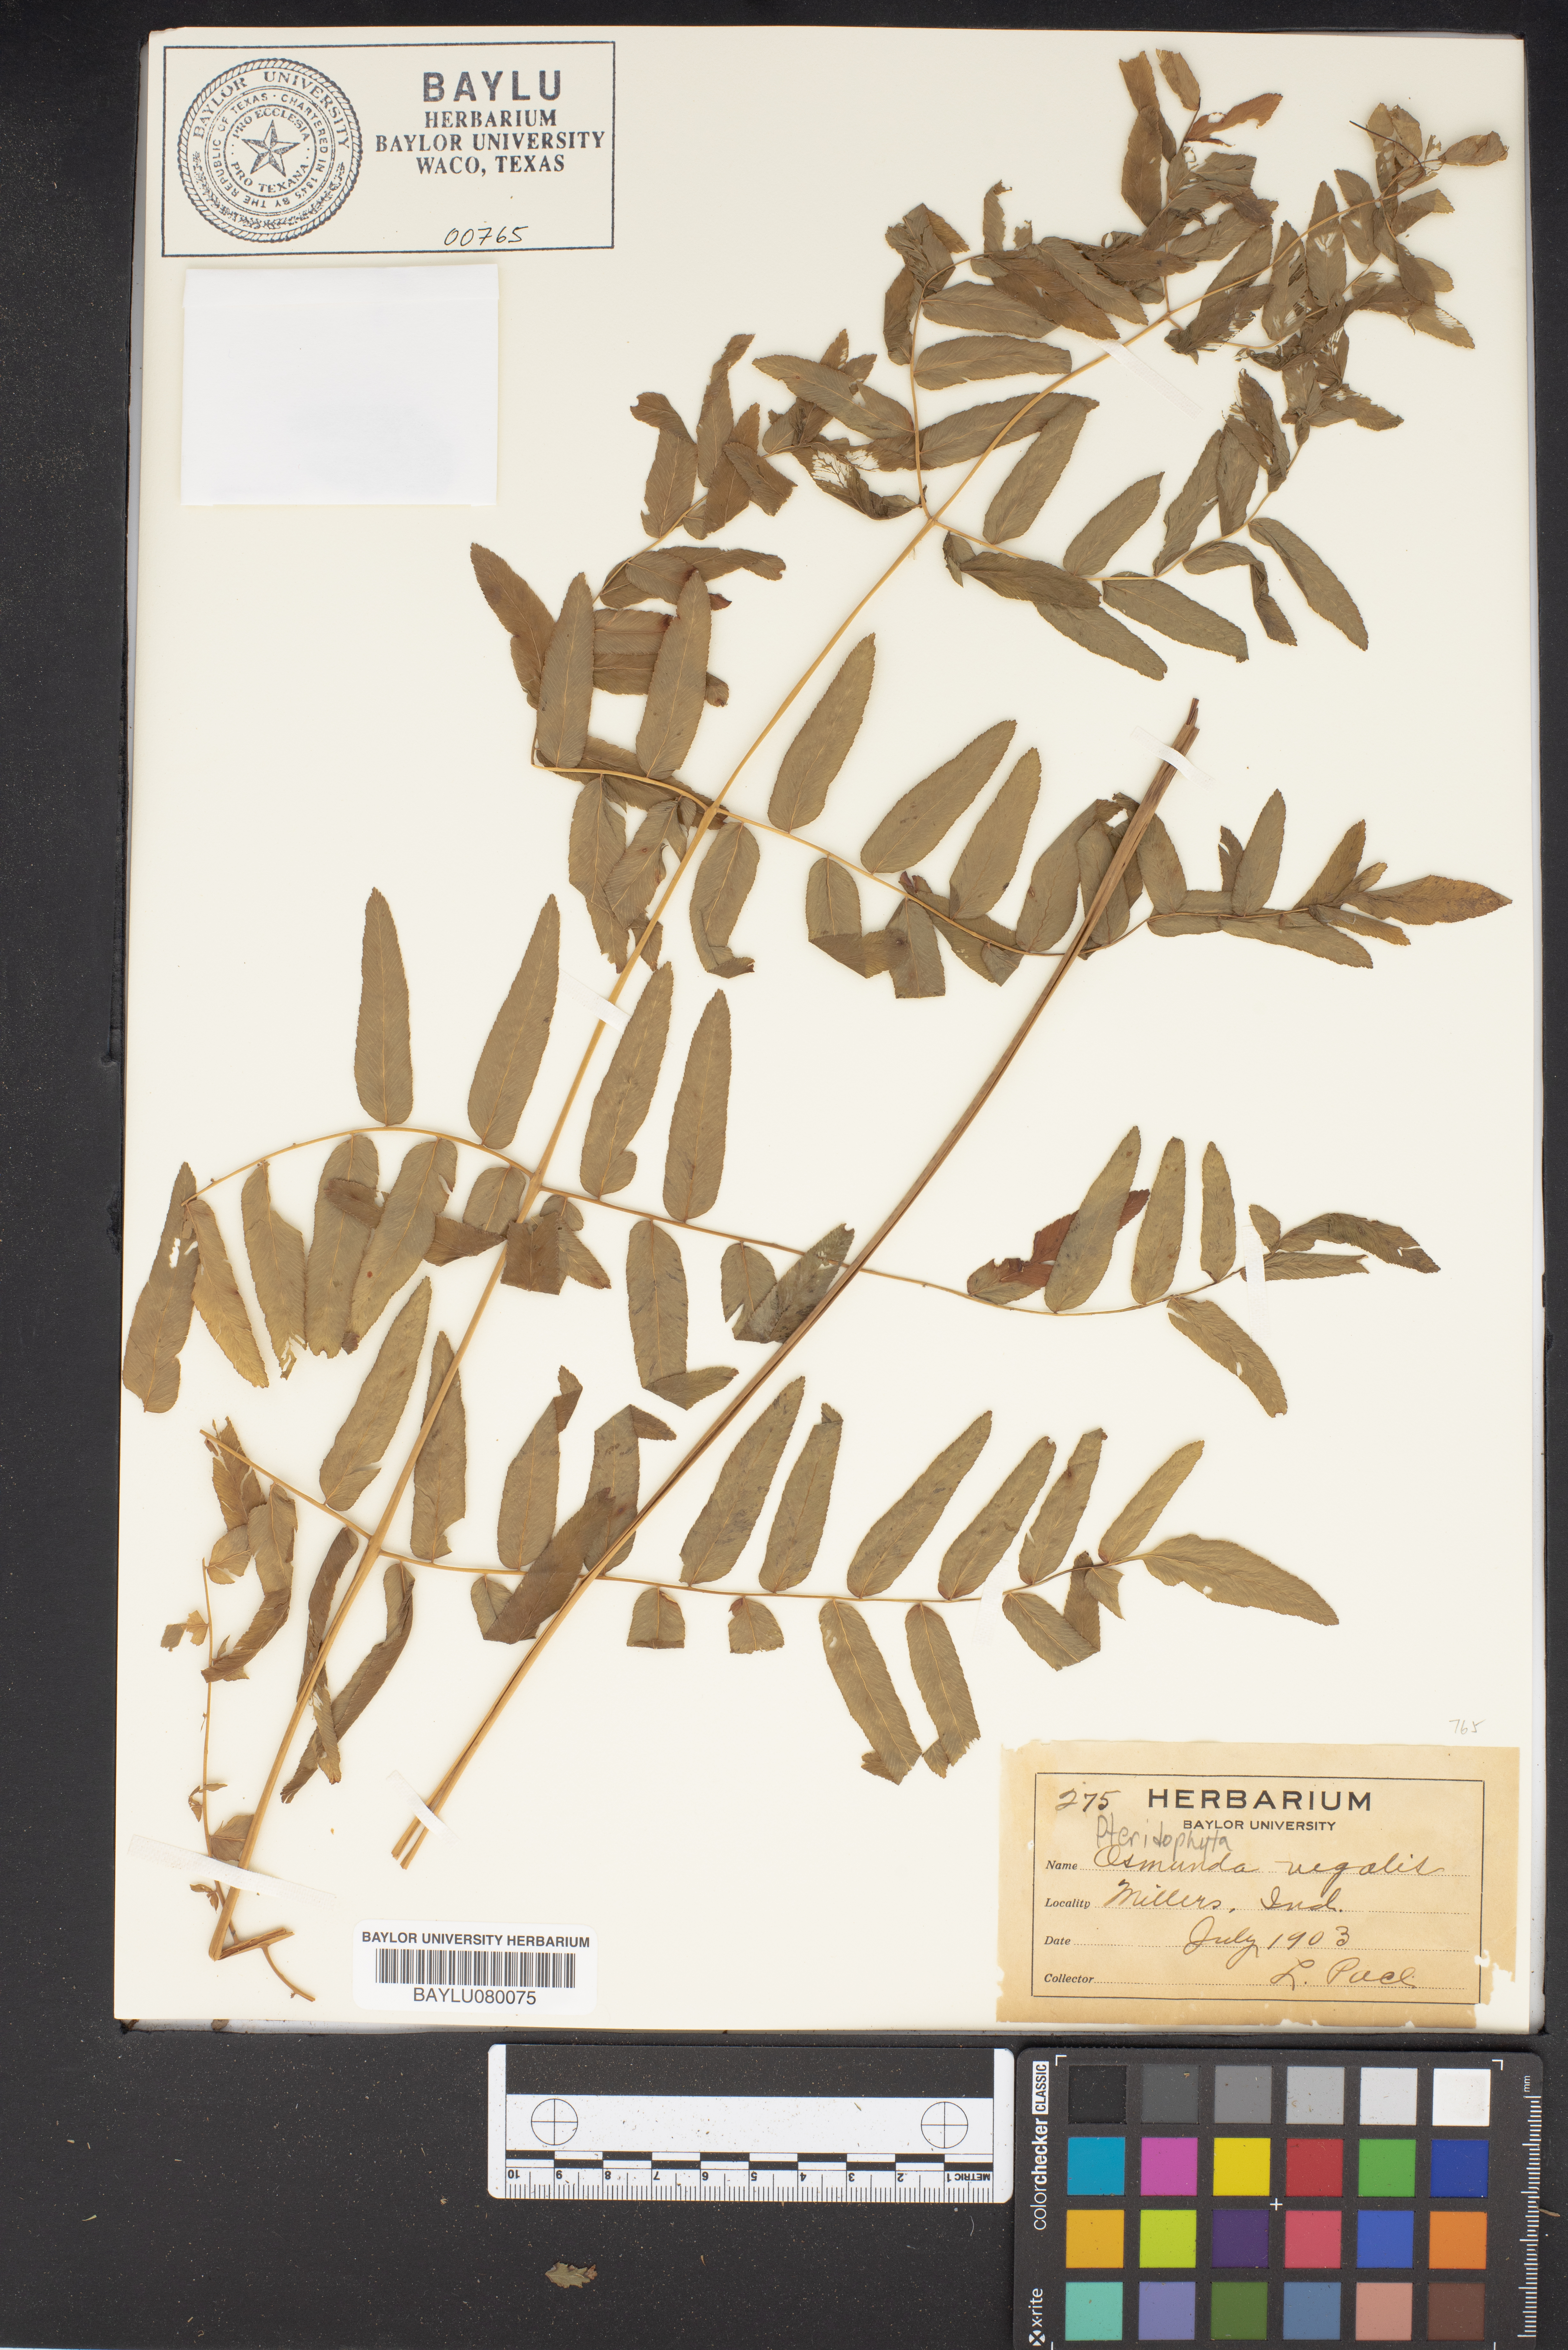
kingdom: Plantae
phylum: Tracheophyta
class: Polypodiopsida
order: Osmundales
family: Osmundaceae
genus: Osmunda
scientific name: Osmunda regalis
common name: Royal fern
